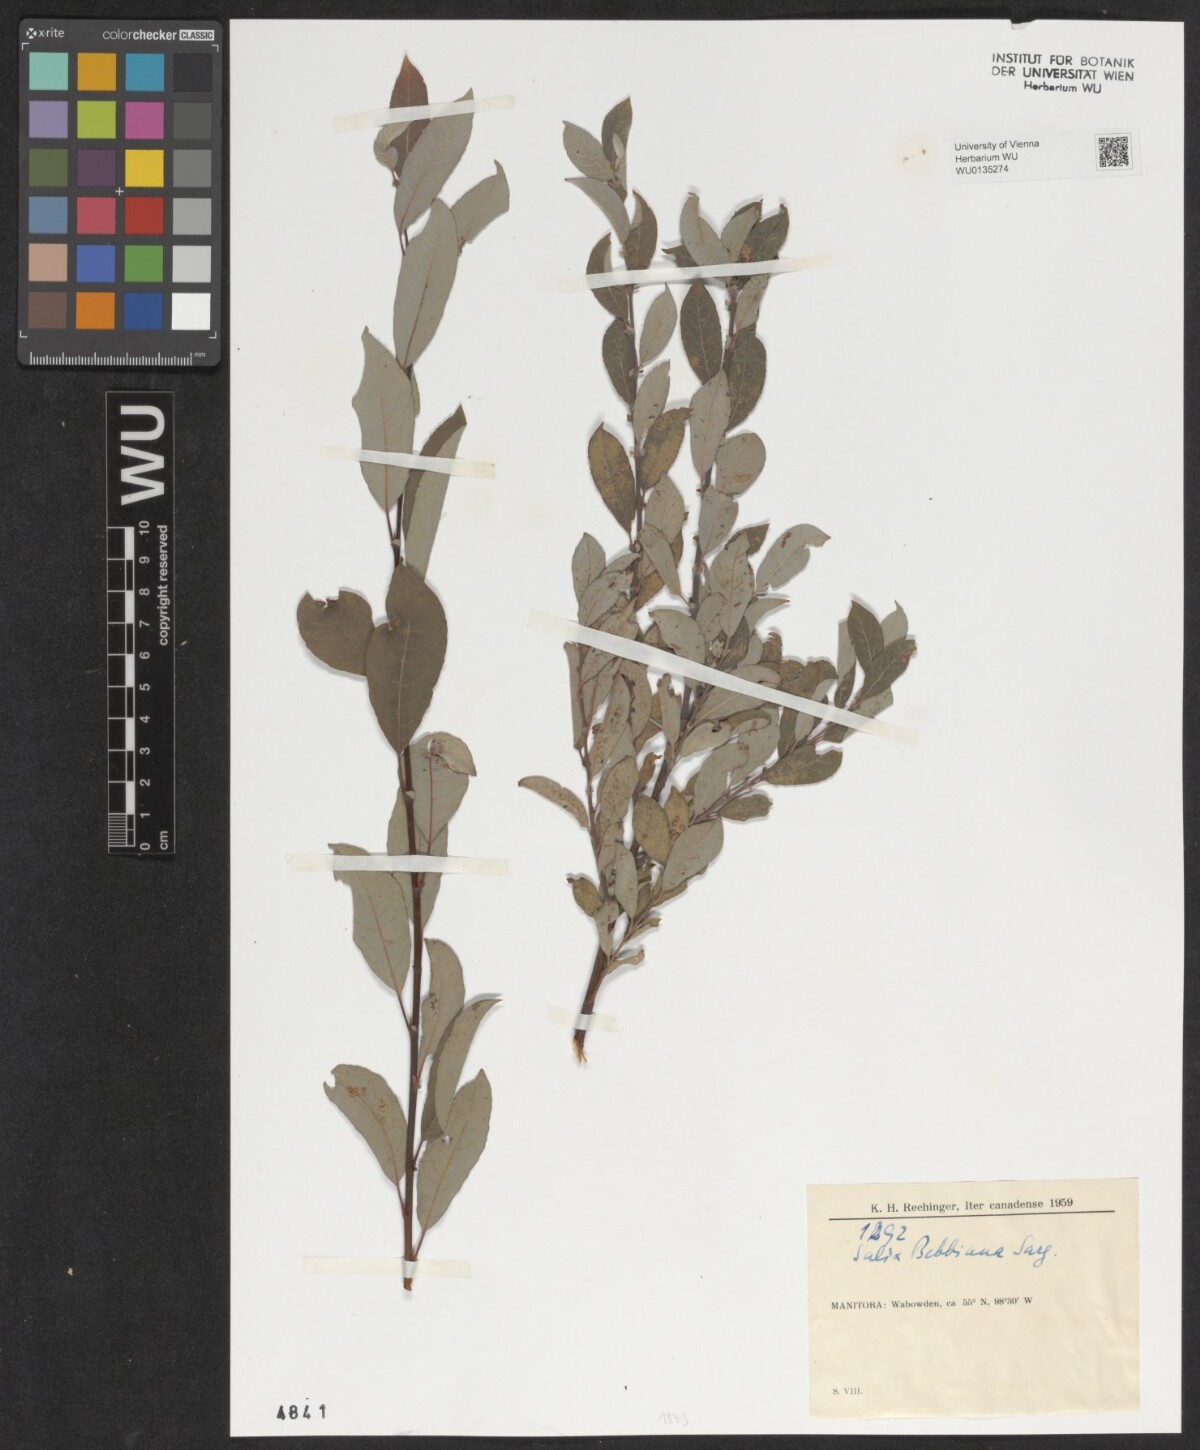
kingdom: Plantae
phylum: Tracheophyta
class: Magnoliopsida
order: Malpighiales
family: Salicaceae
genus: Salix
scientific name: Salix bebbiana
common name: Bebb's willow
